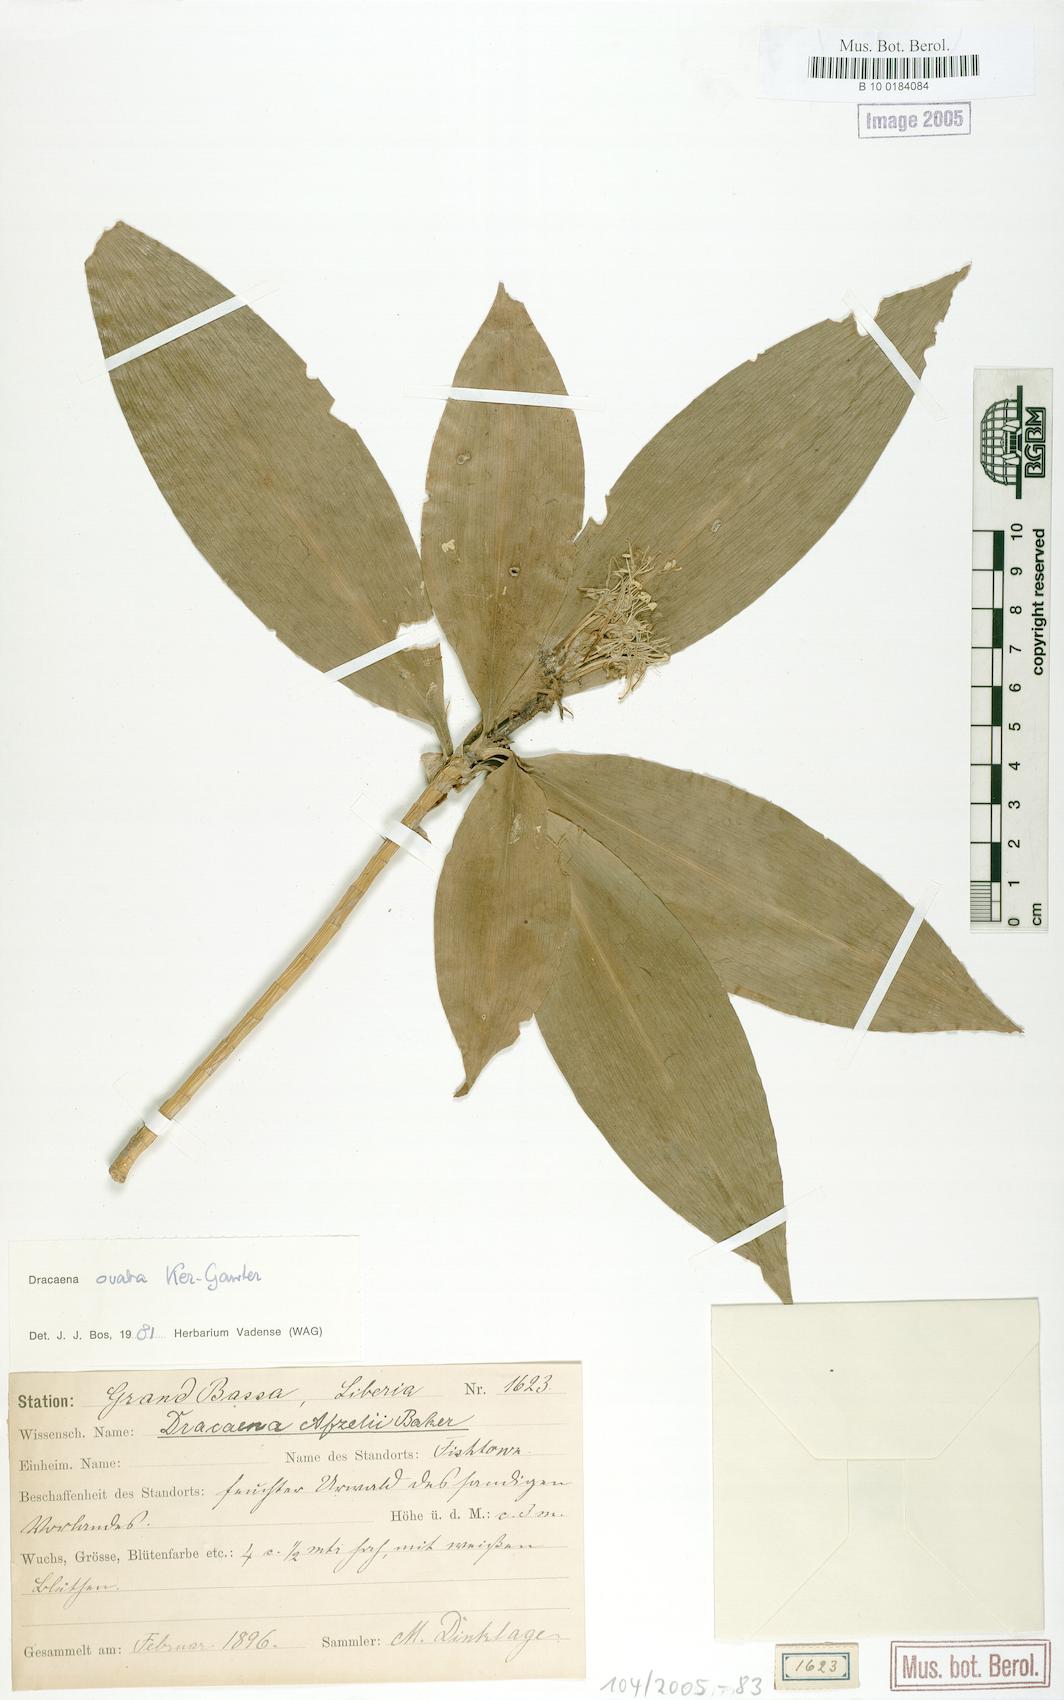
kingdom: Plantae
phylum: Tracheophyta
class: Liliopsida
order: Asparagales
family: Asparagaceae
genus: Dracaena
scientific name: Dracaena ovata
